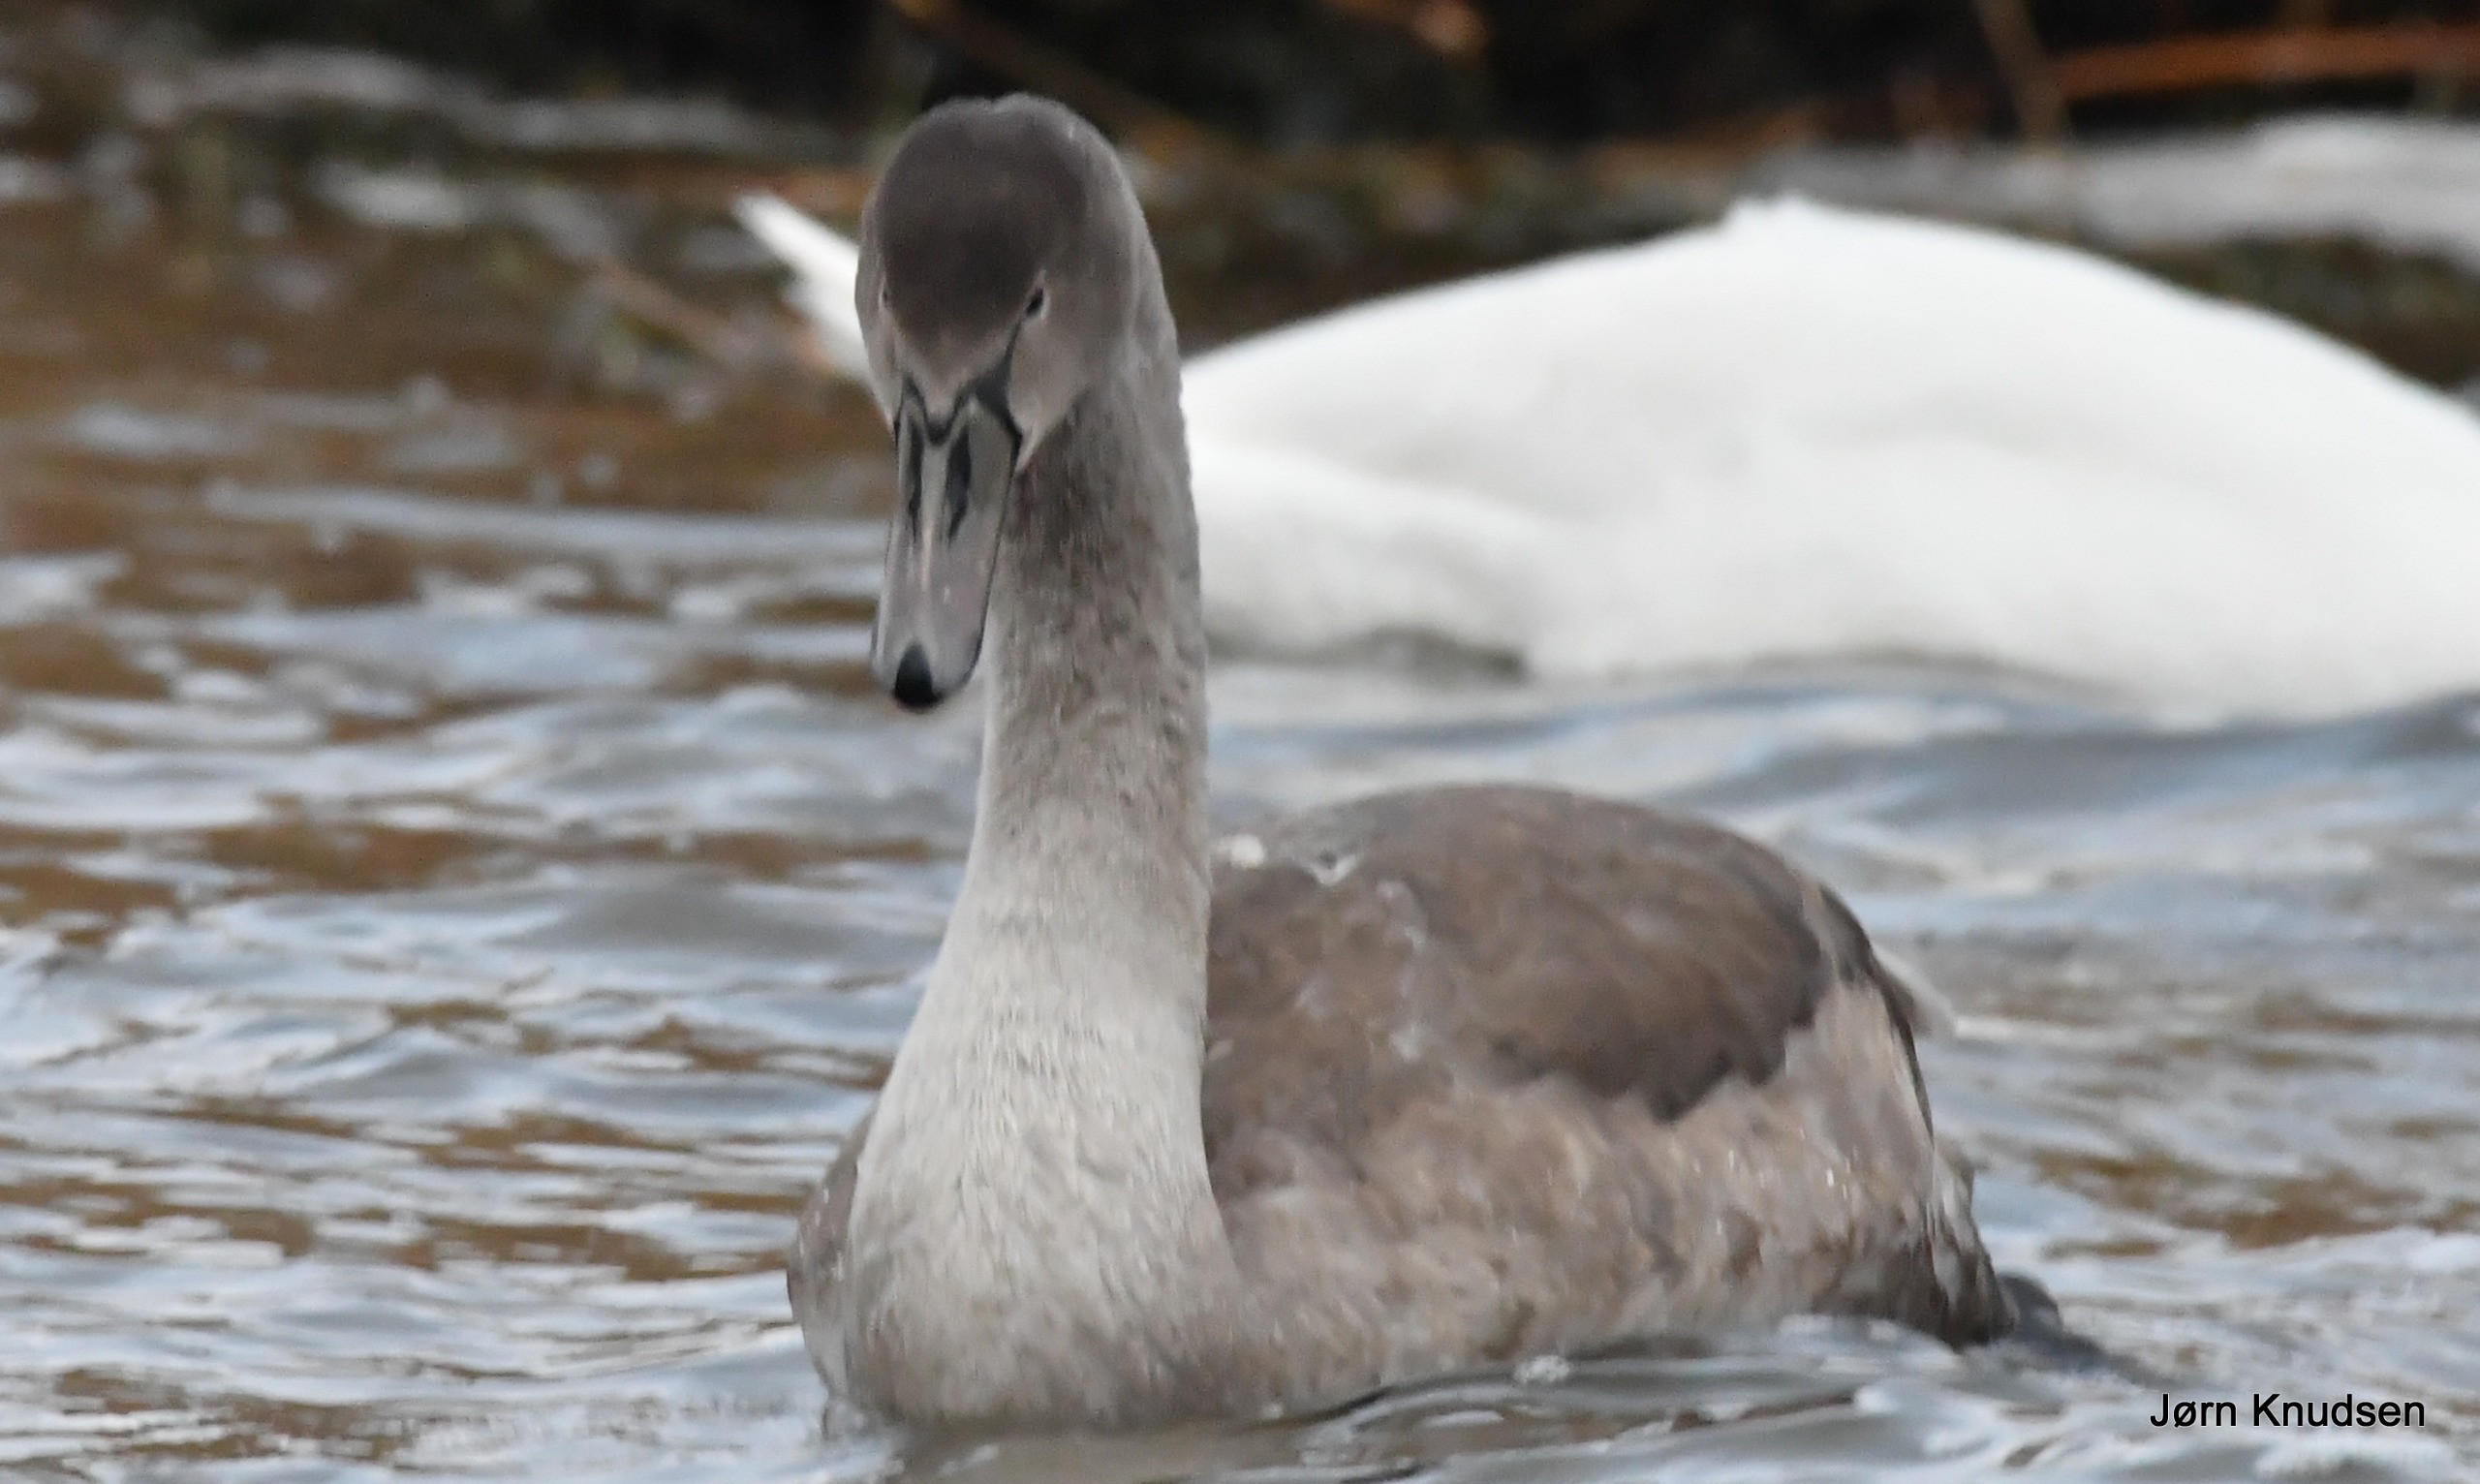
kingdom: Animalia
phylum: Chordata
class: Aves
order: Anseriformes
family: Anatidae
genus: Cygnus
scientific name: Cygnus olor
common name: Knopsvane
